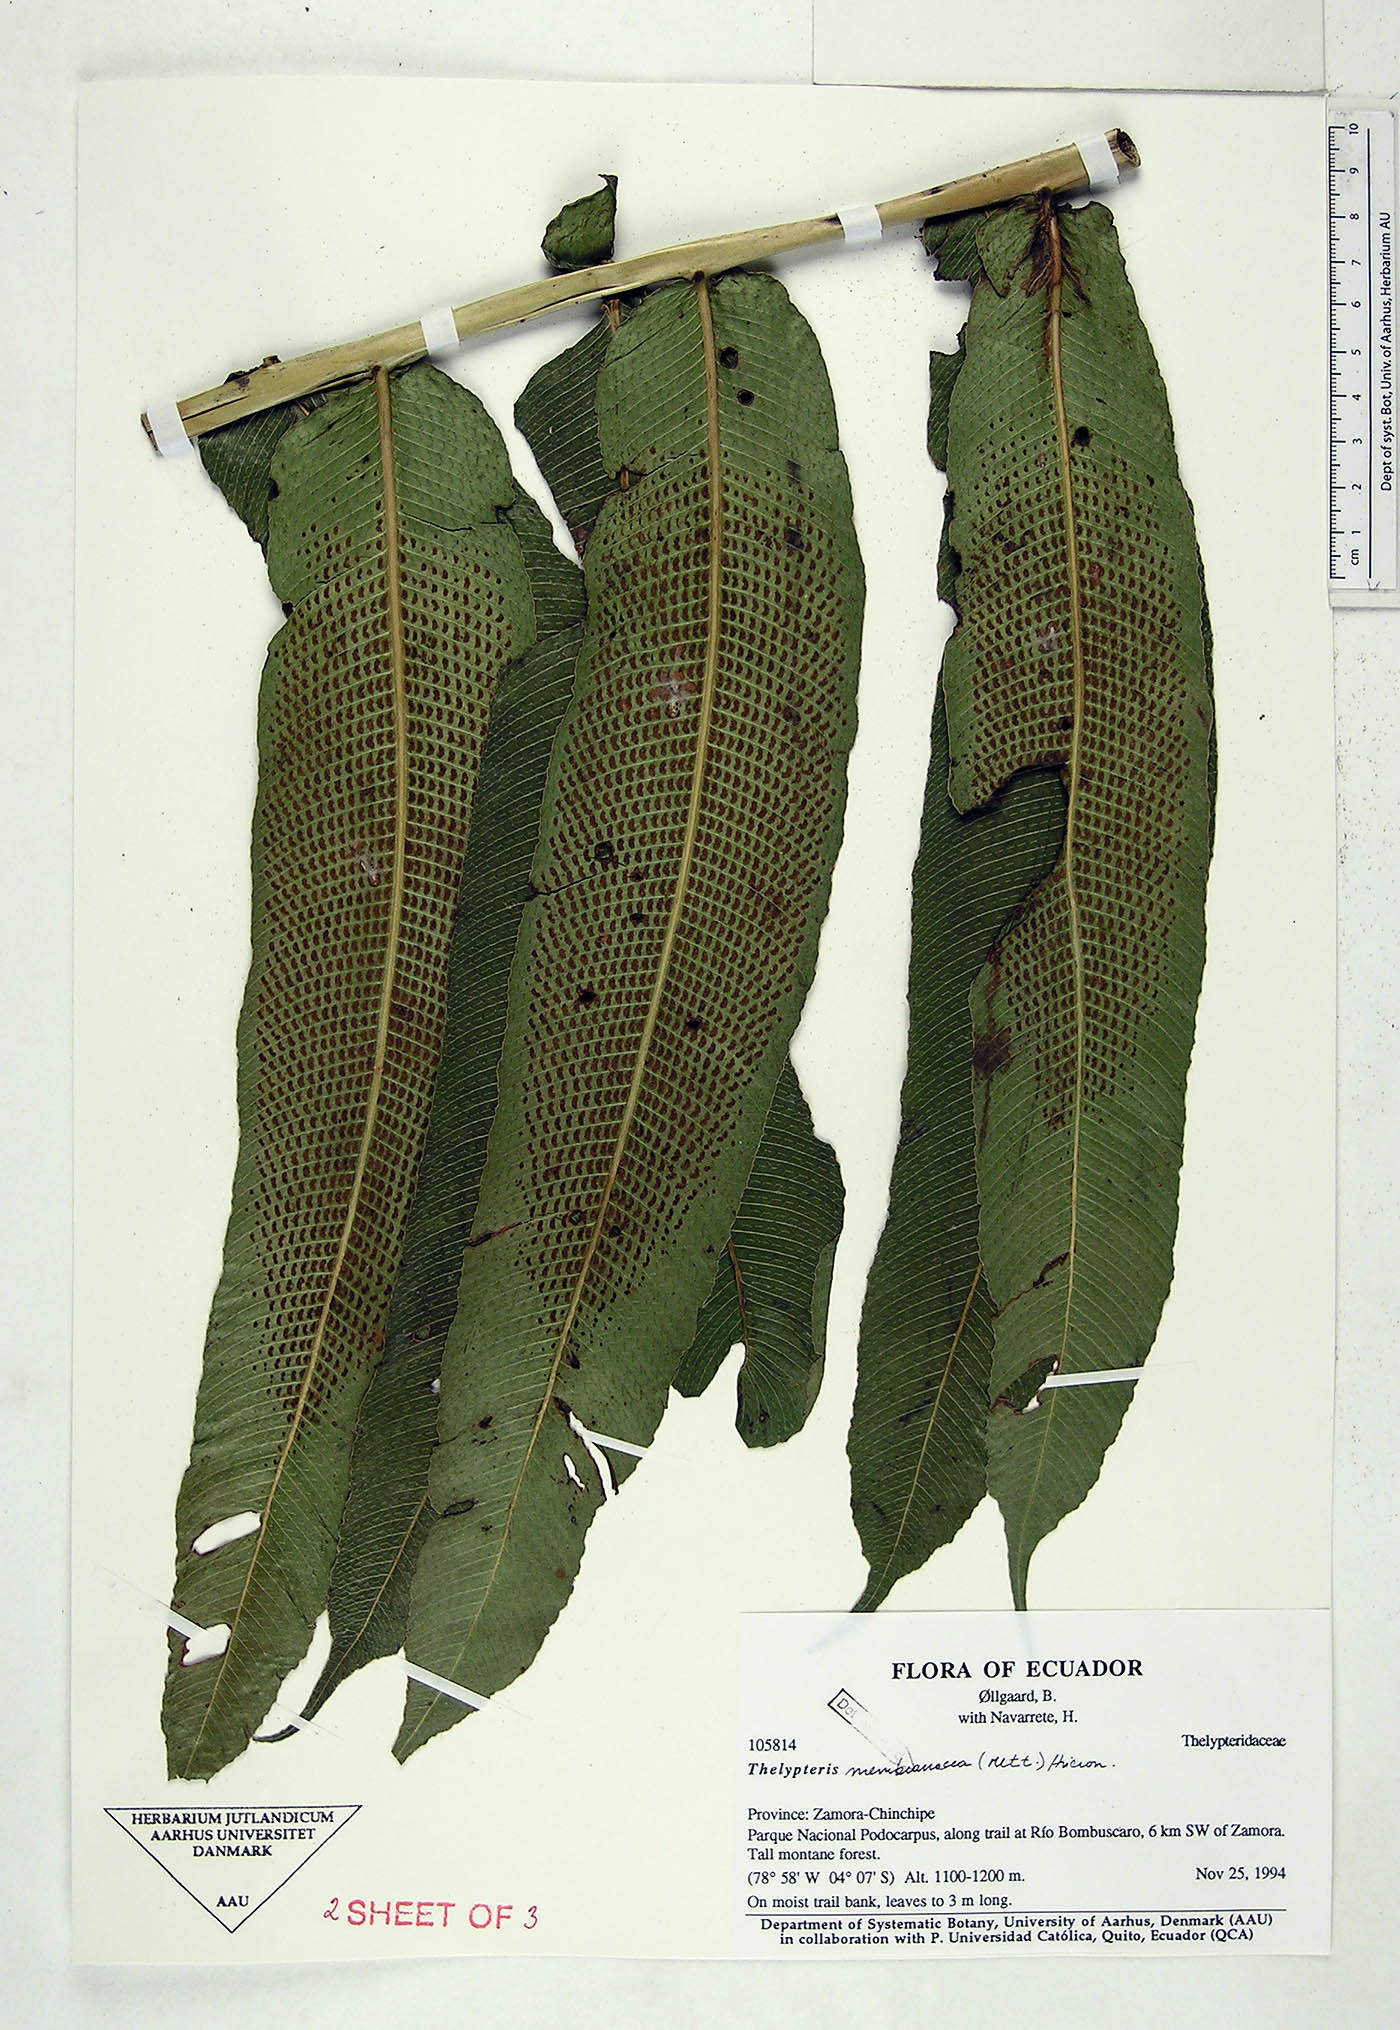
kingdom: Plantae
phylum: Tracheophyta
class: Polypodiopsida
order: Polypodiales
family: Thelypteridaceae
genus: Meniscium
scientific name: Meniscium membranaceum
